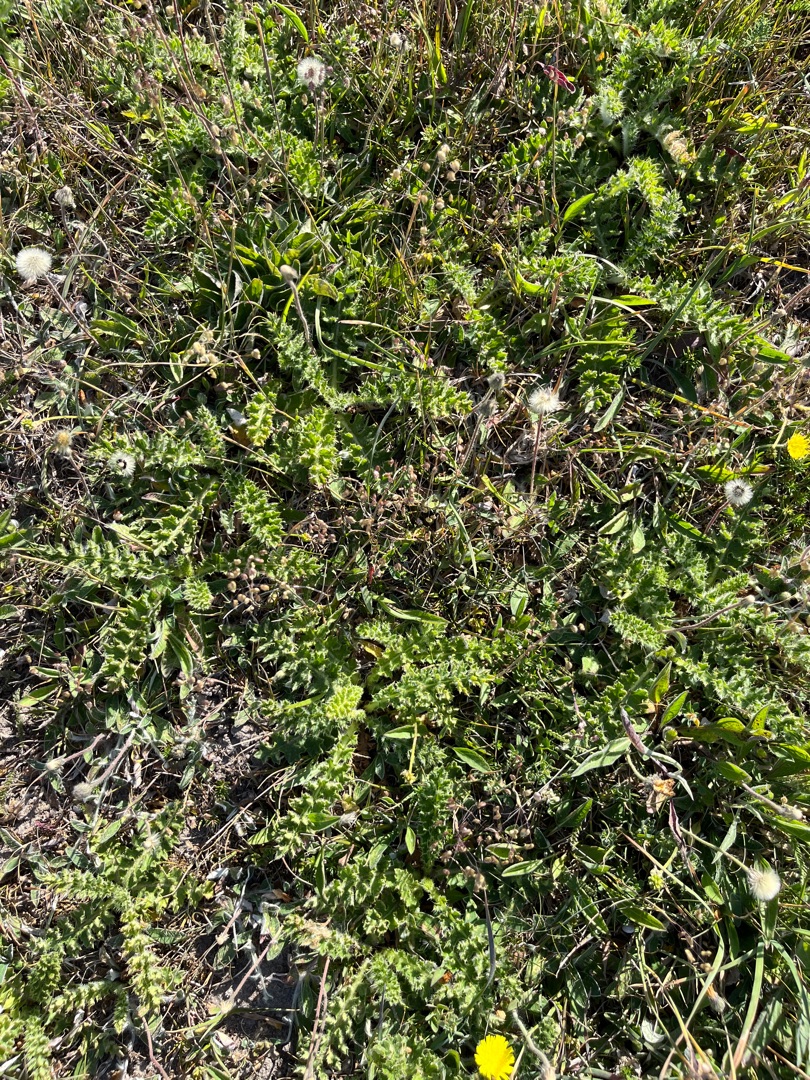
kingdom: Plantae
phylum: Tracheophyta
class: Magnoliopsida
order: Asterales
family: Asteraceae
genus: Cirsium
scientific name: Cirsium acaule
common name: Lav tidsel
